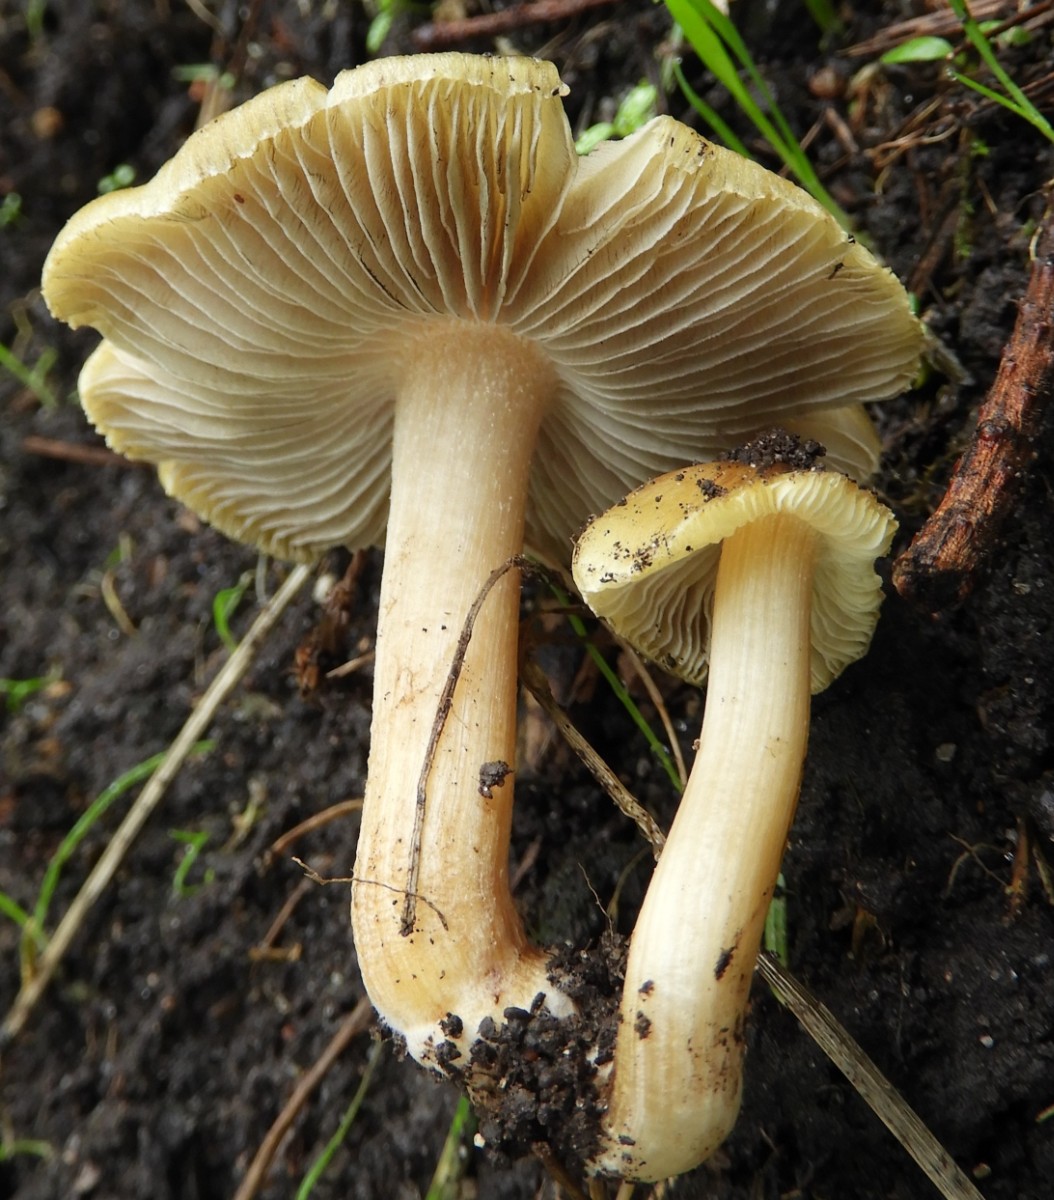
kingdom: Fungi
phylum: Basidiomycota
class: Agaricomycetes
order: Agaricales
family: Inocybaceae
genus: Inosperma
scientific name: Inosperma
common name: strågul trævlhat
